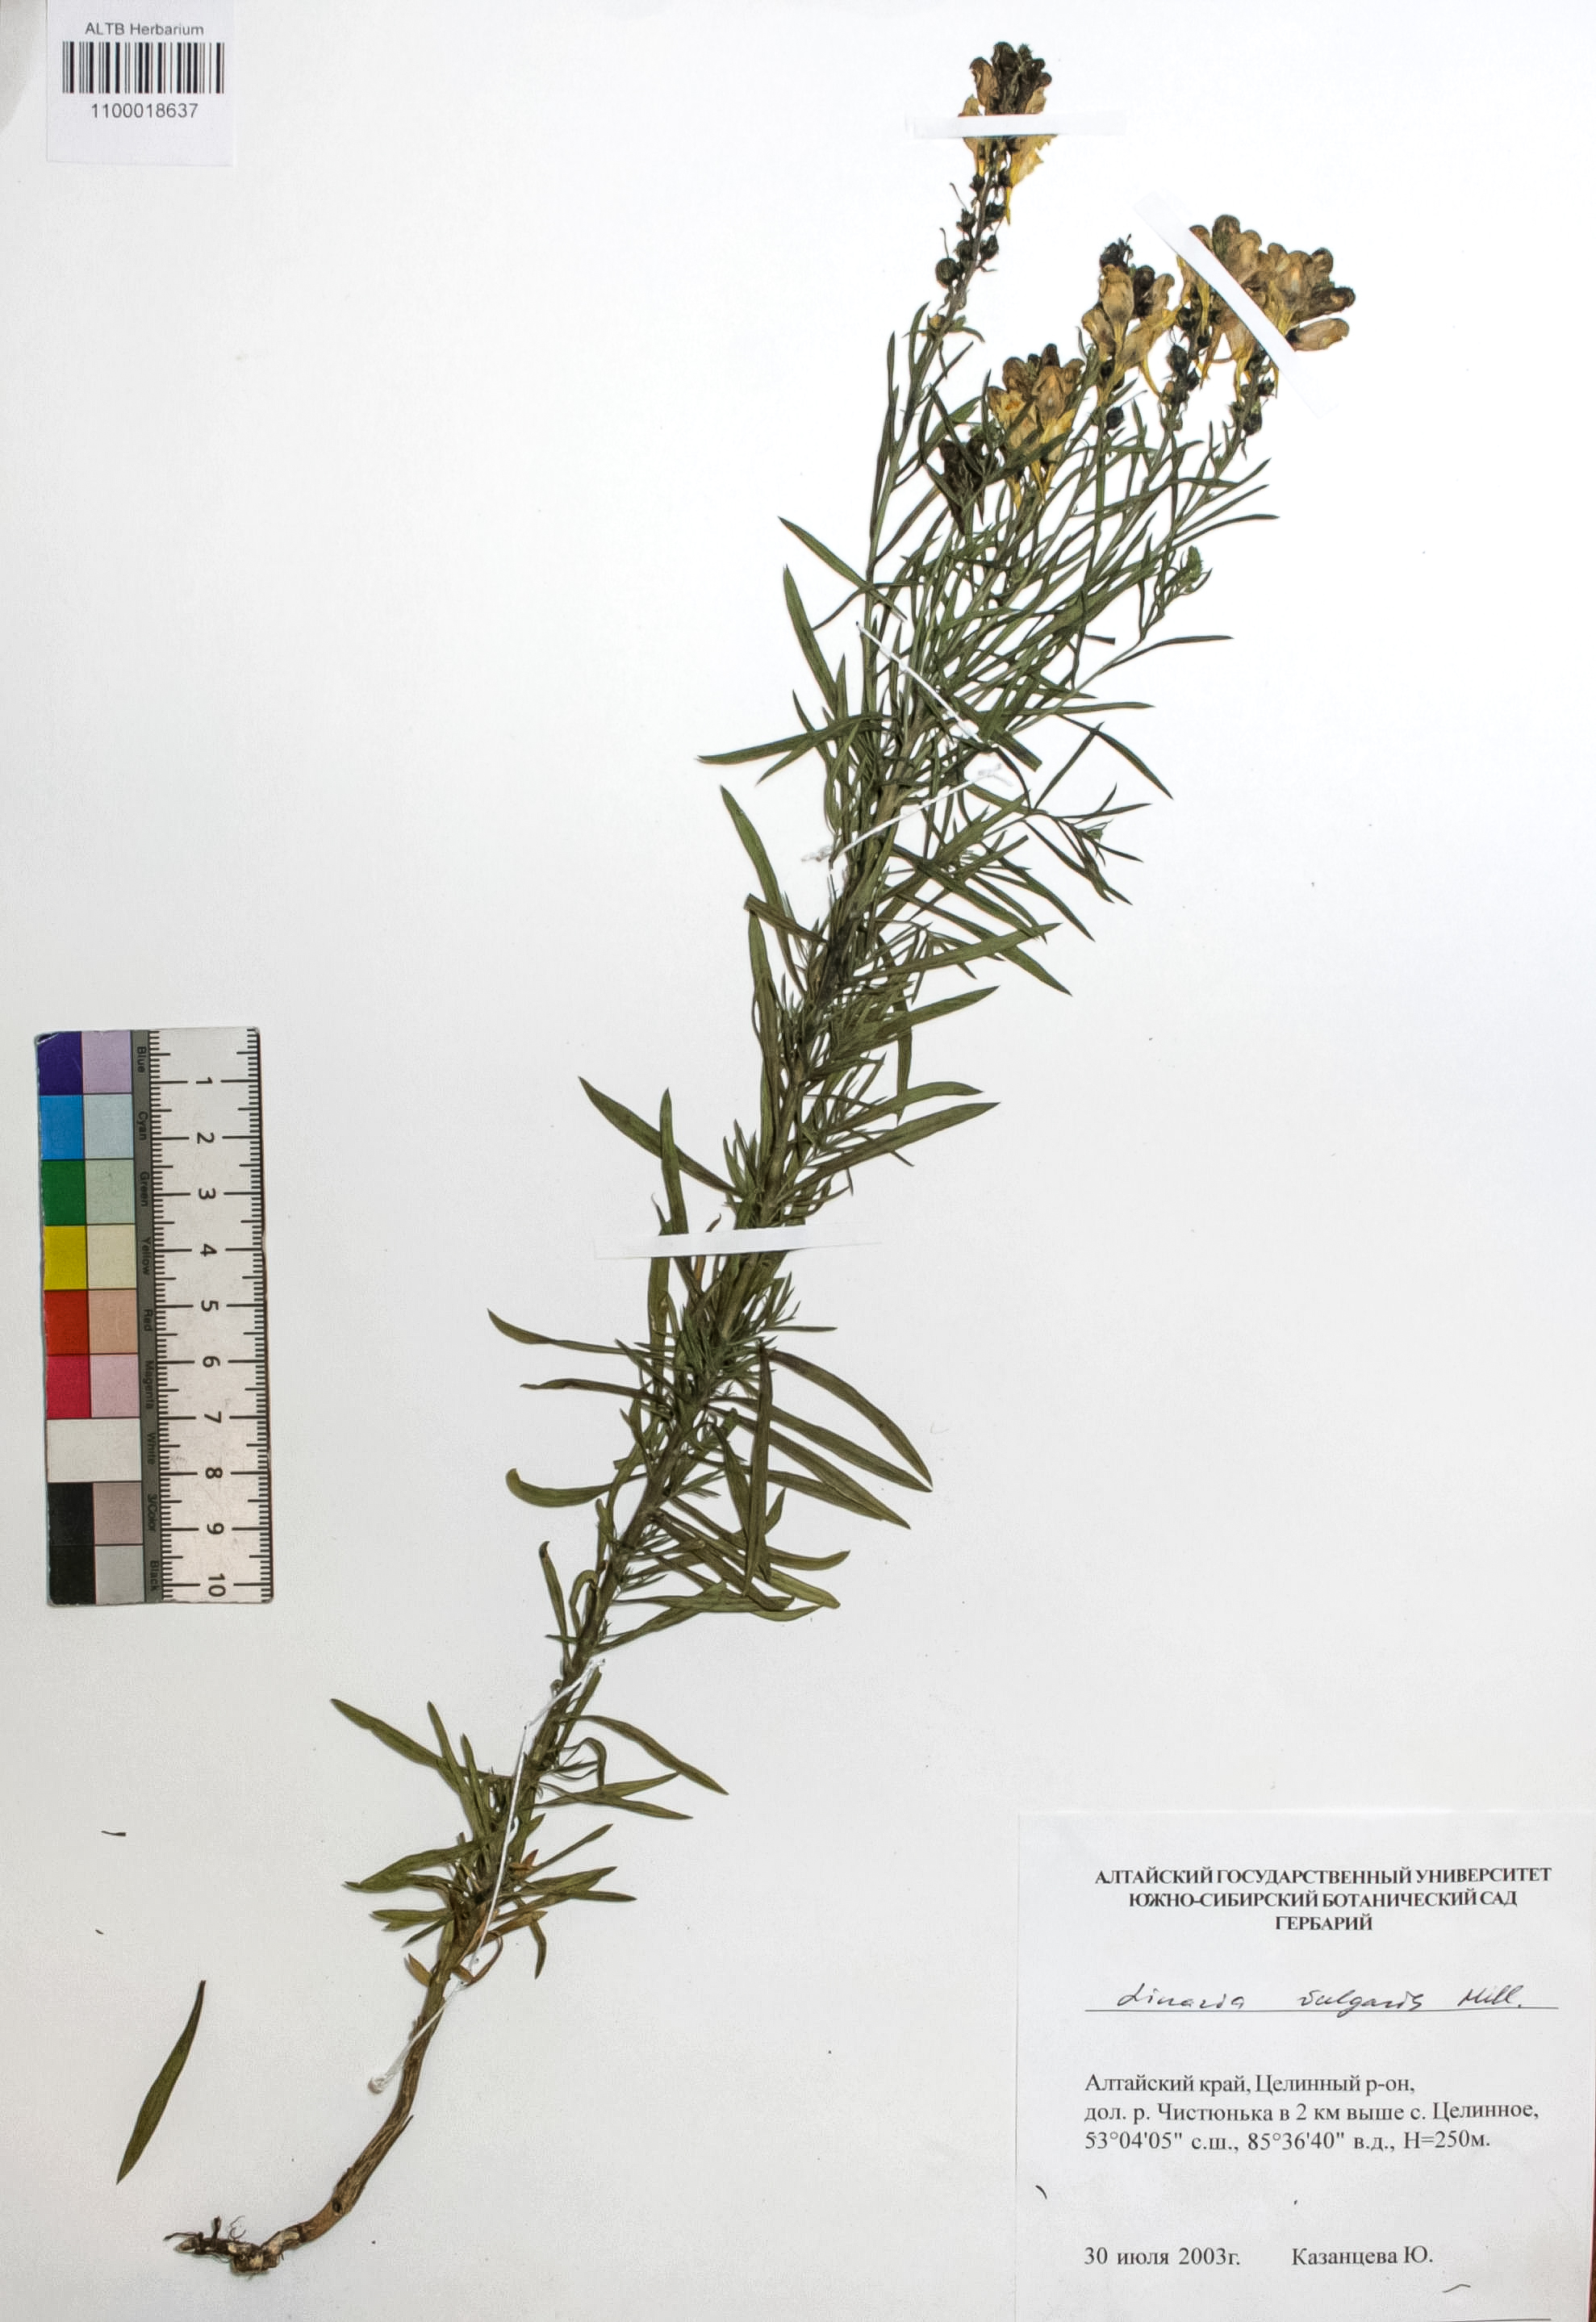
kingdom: Plantae
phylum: Tracheophyta
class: Magnoliopsida
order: Lamiales
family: Plantaginaceae
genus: Linaria
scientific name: Linaria vulgaris
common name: Butter and eggs
